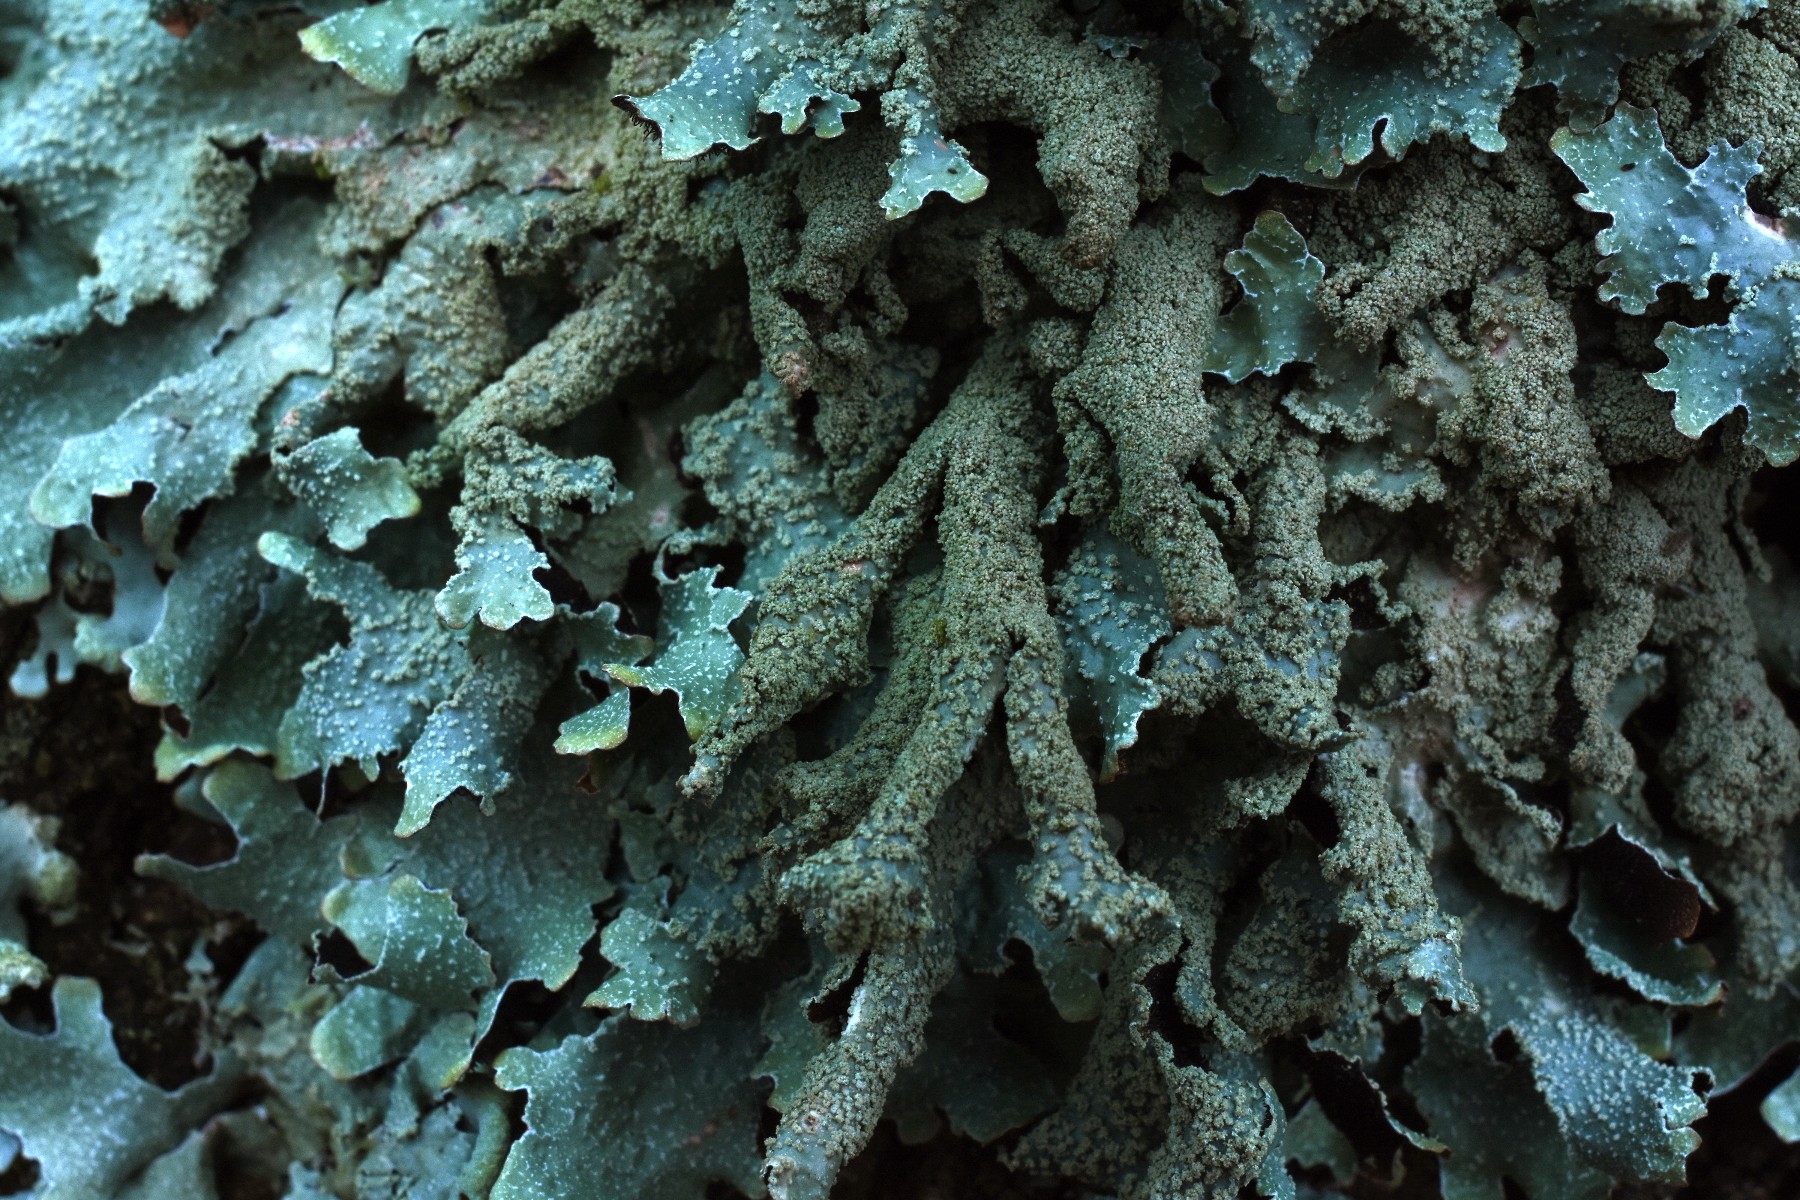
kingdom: Fungi
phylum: Ascomycota
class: Lecanoromycetes
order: Lecanorales
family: Parmeliaceae
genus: Parmelia
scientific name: Parmelia submontana
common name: langlobet skållav
